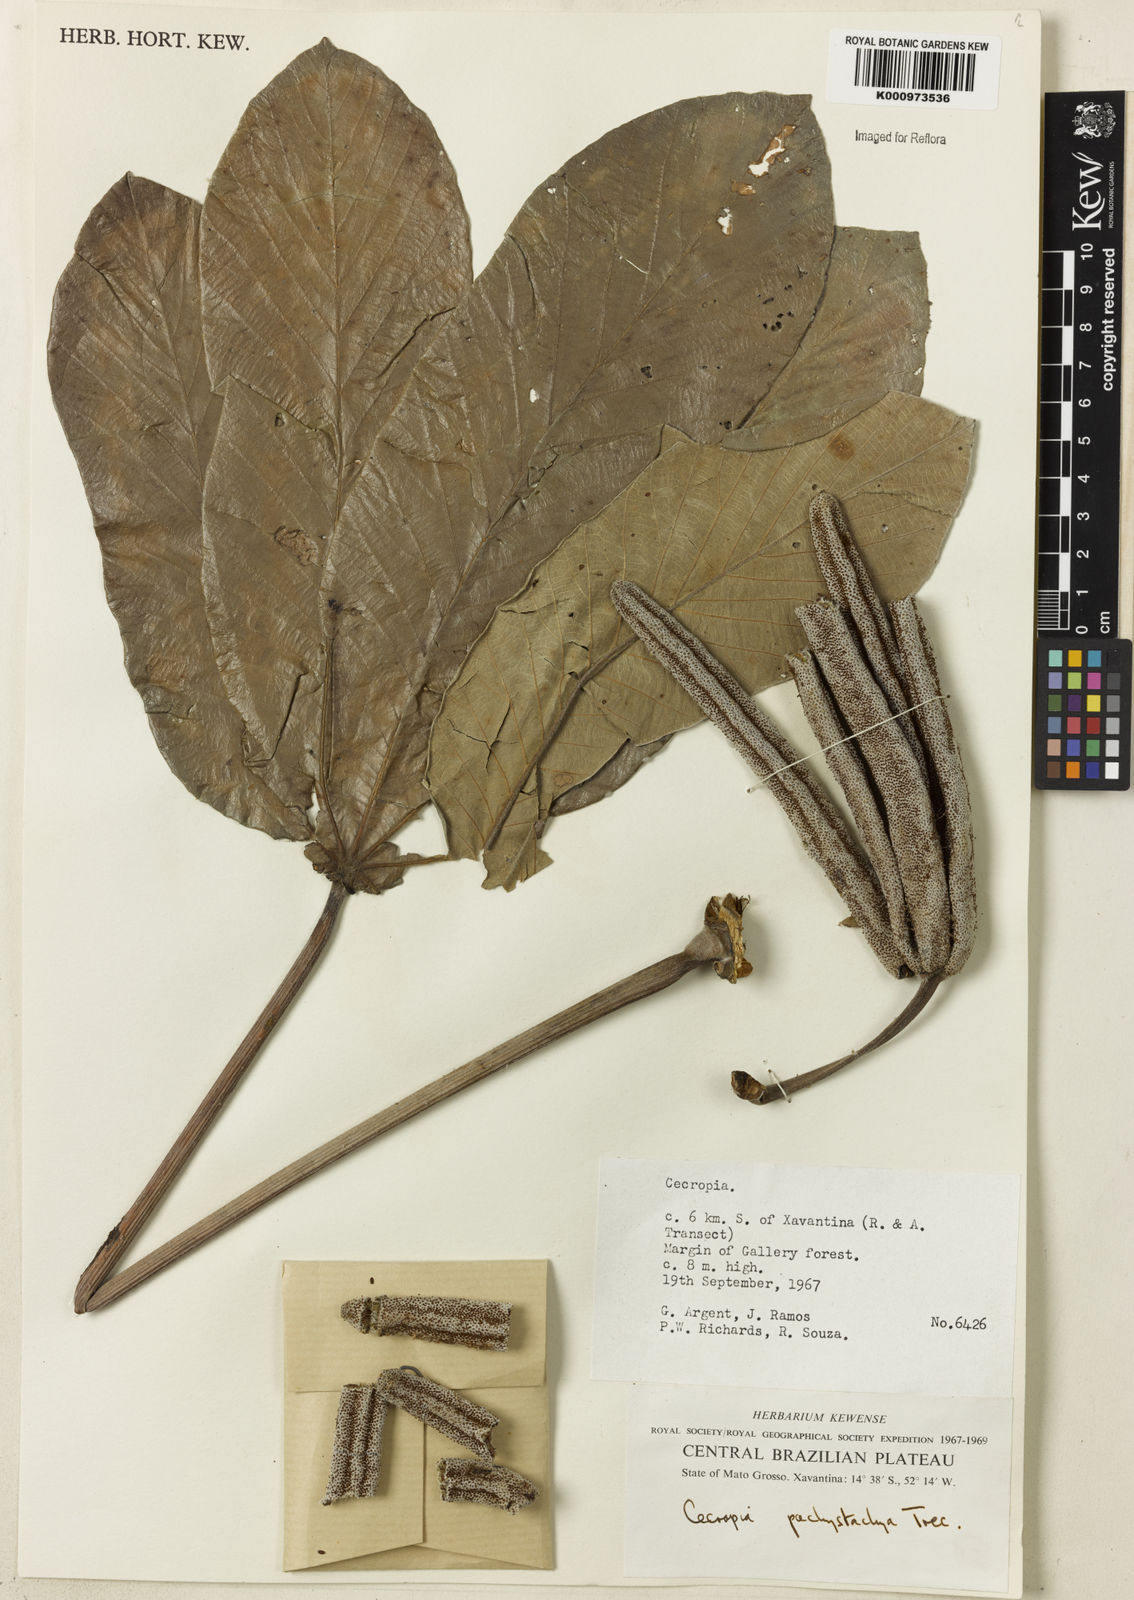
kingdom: Plantae
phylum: Tracheophyta
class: Magnoliopsida
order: Rosales
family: Urticaceae
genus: Cecropia
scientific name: Cecropia
